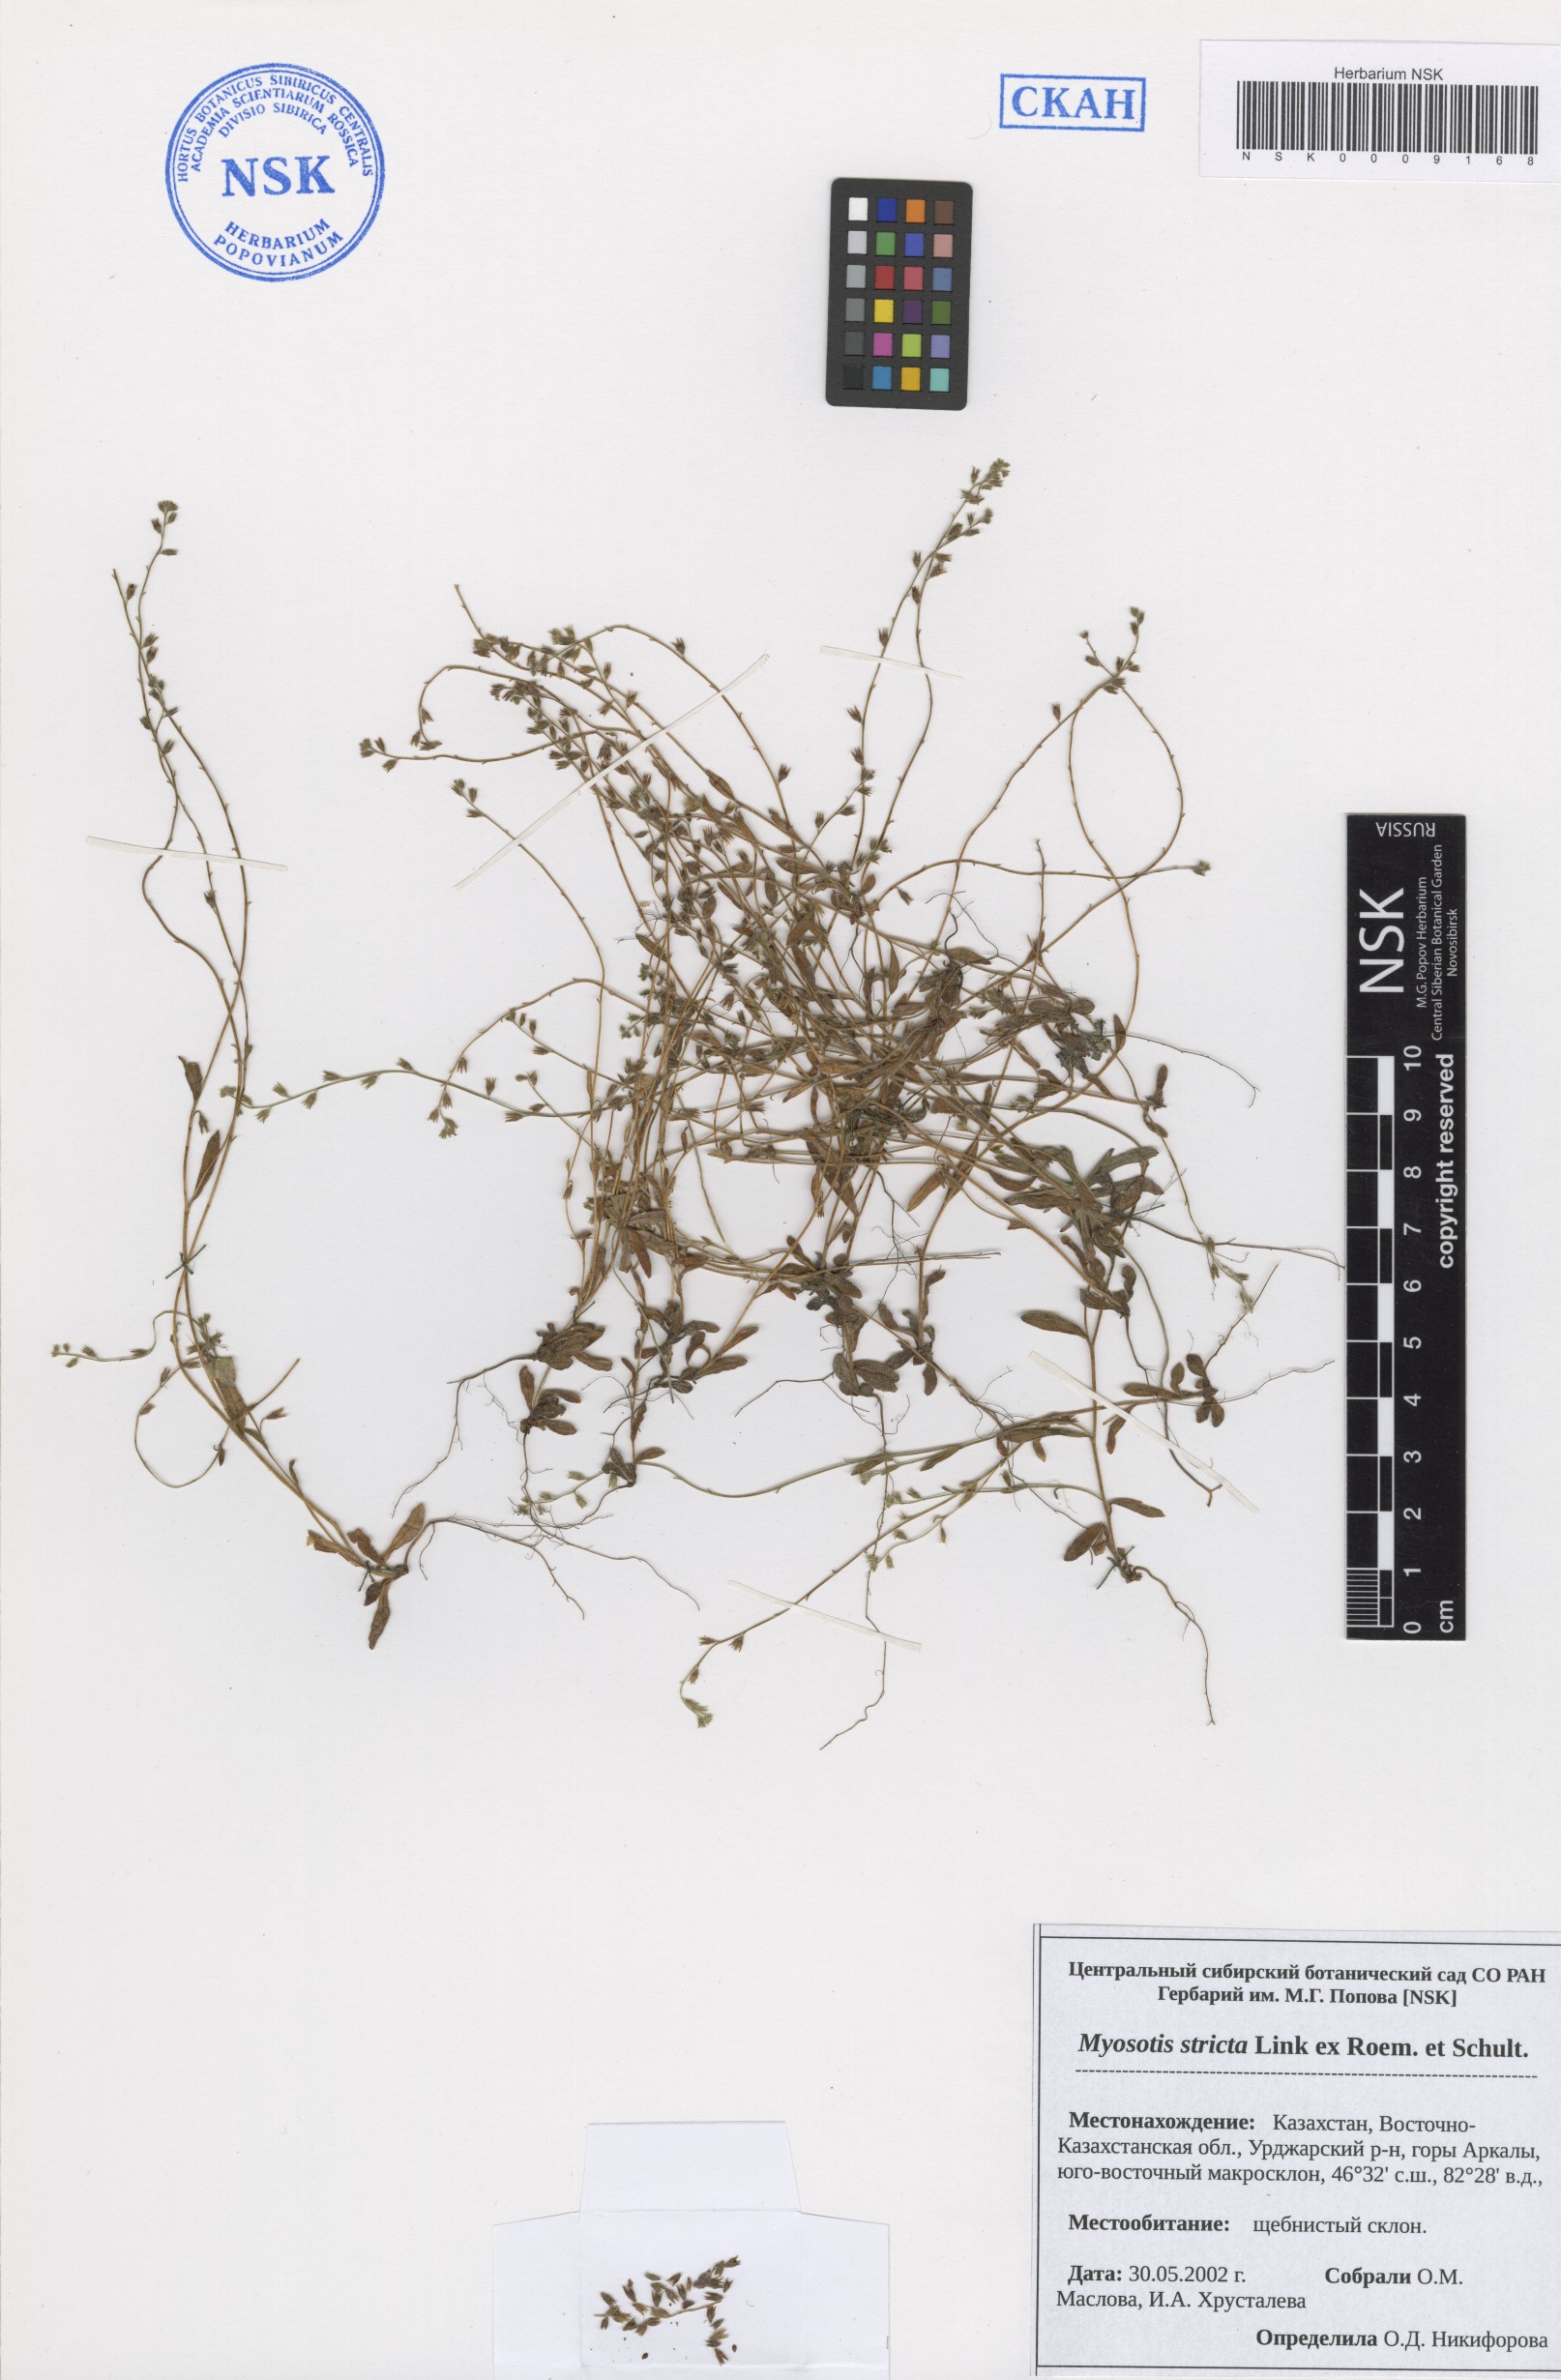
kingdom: Plantae
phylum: Tracheophyta
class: Magnoliopsida
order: Boraginales
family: Boraginaceae
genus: Myosotis
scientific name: Myosotis stricta
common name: Strict forget-me-not
